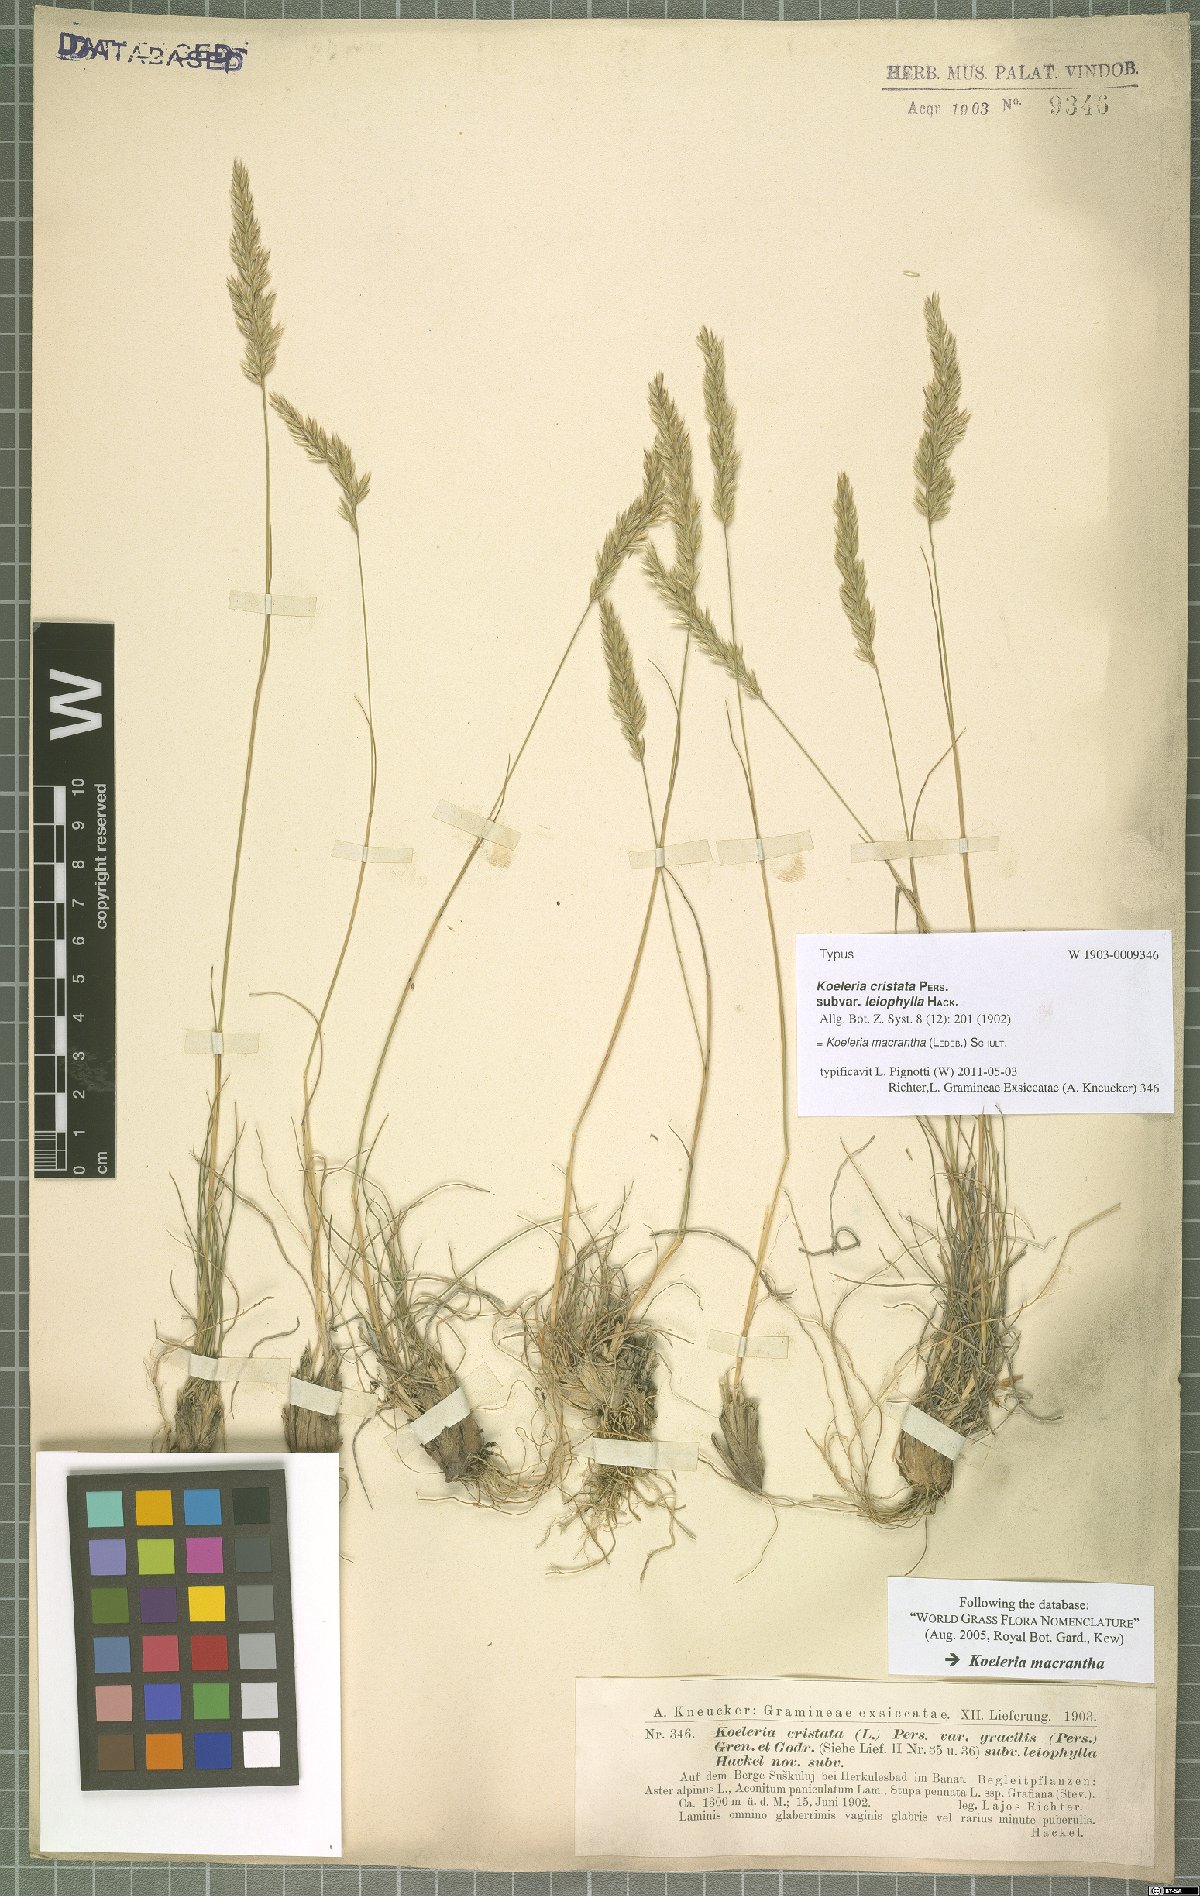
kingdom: Plantae
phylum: Tracheophyta
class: Liliopsida
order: Poales
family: Poaceae
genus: Koeleria
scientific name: Koeleria macrantha
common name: Crested hair-grass
